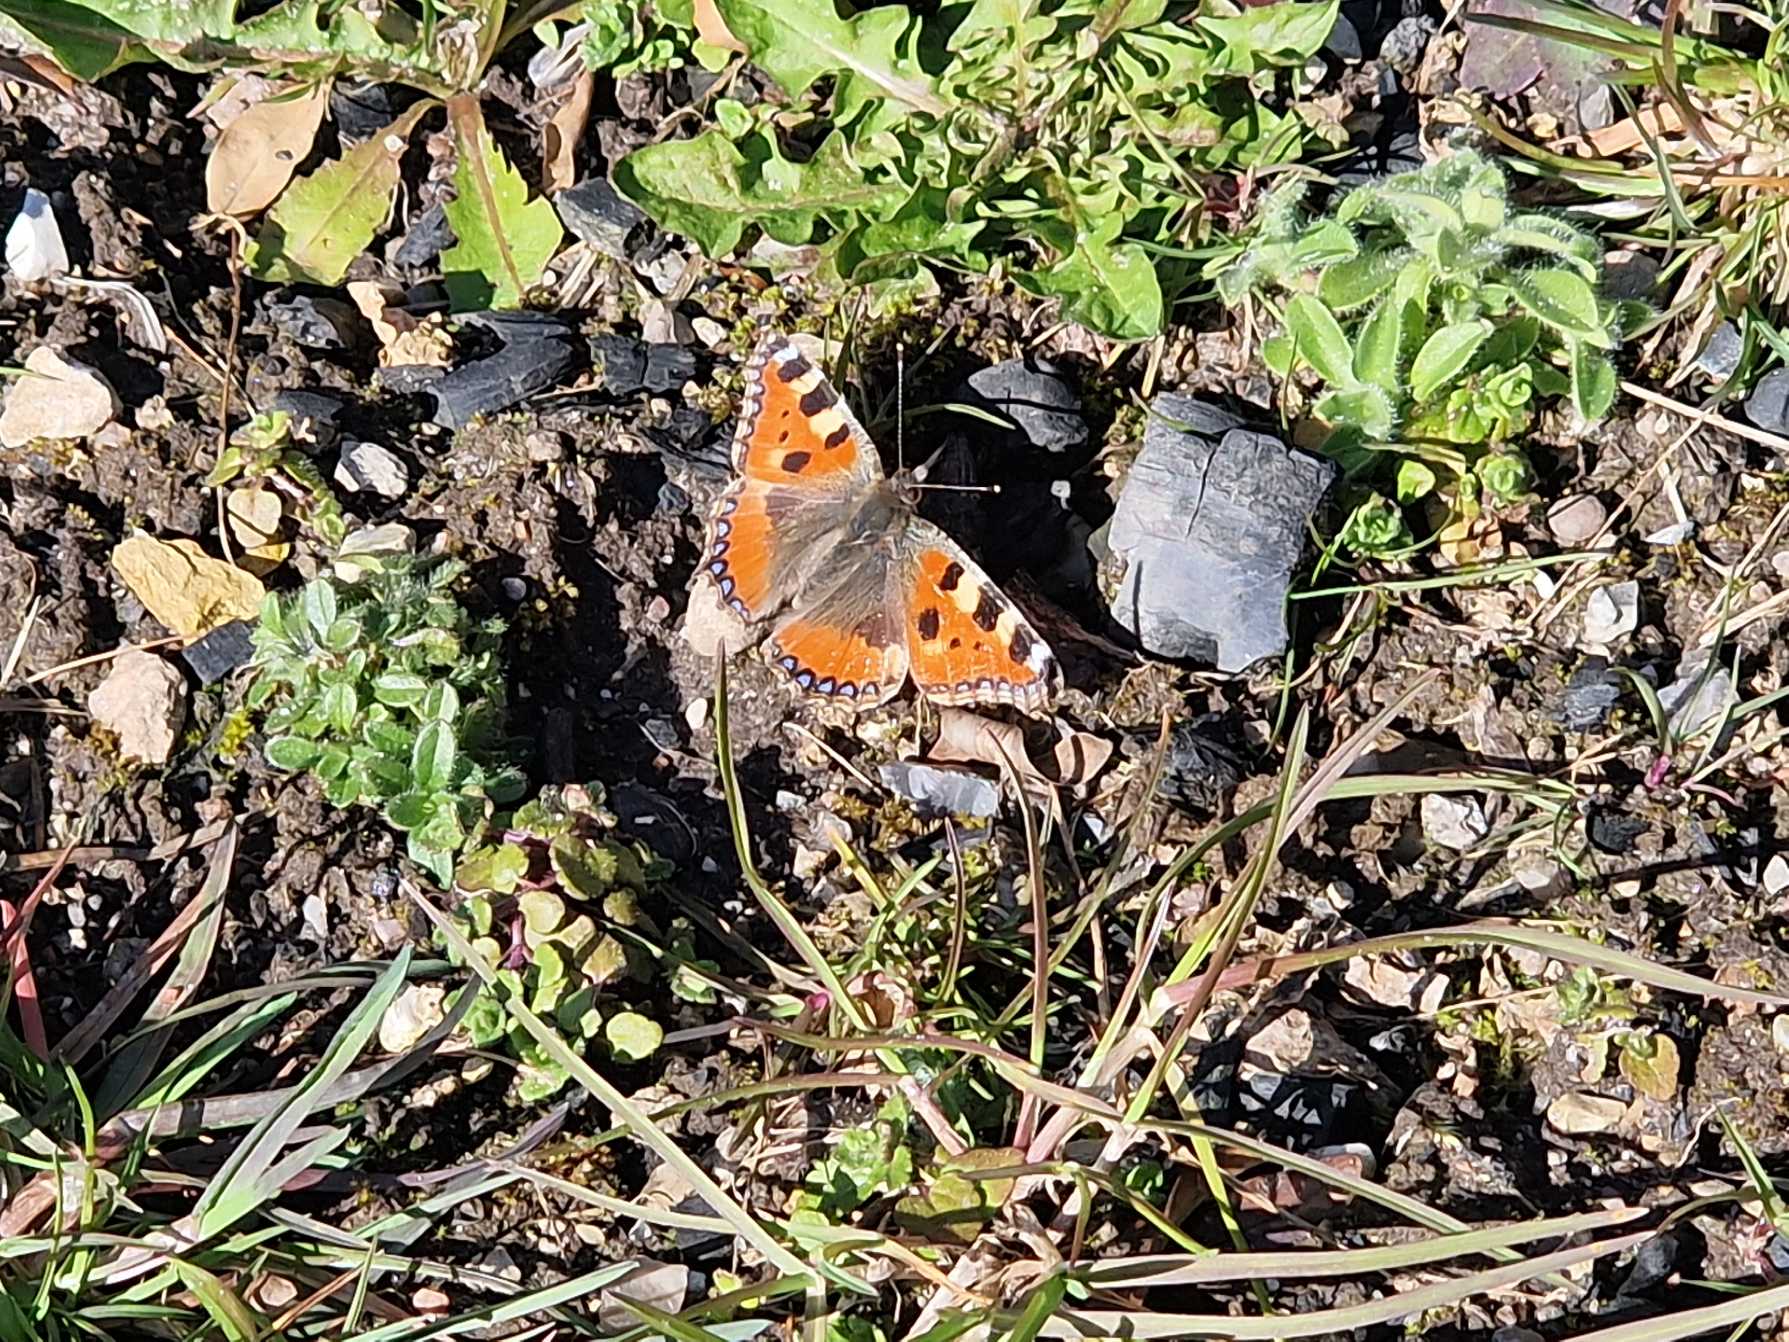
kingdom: Animalia
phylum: Arthropoda
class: Insecta
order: Lepidoptera
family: Nymphalidae
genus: Aglais
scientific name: Aglais urticae
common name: Nældens takvinge
